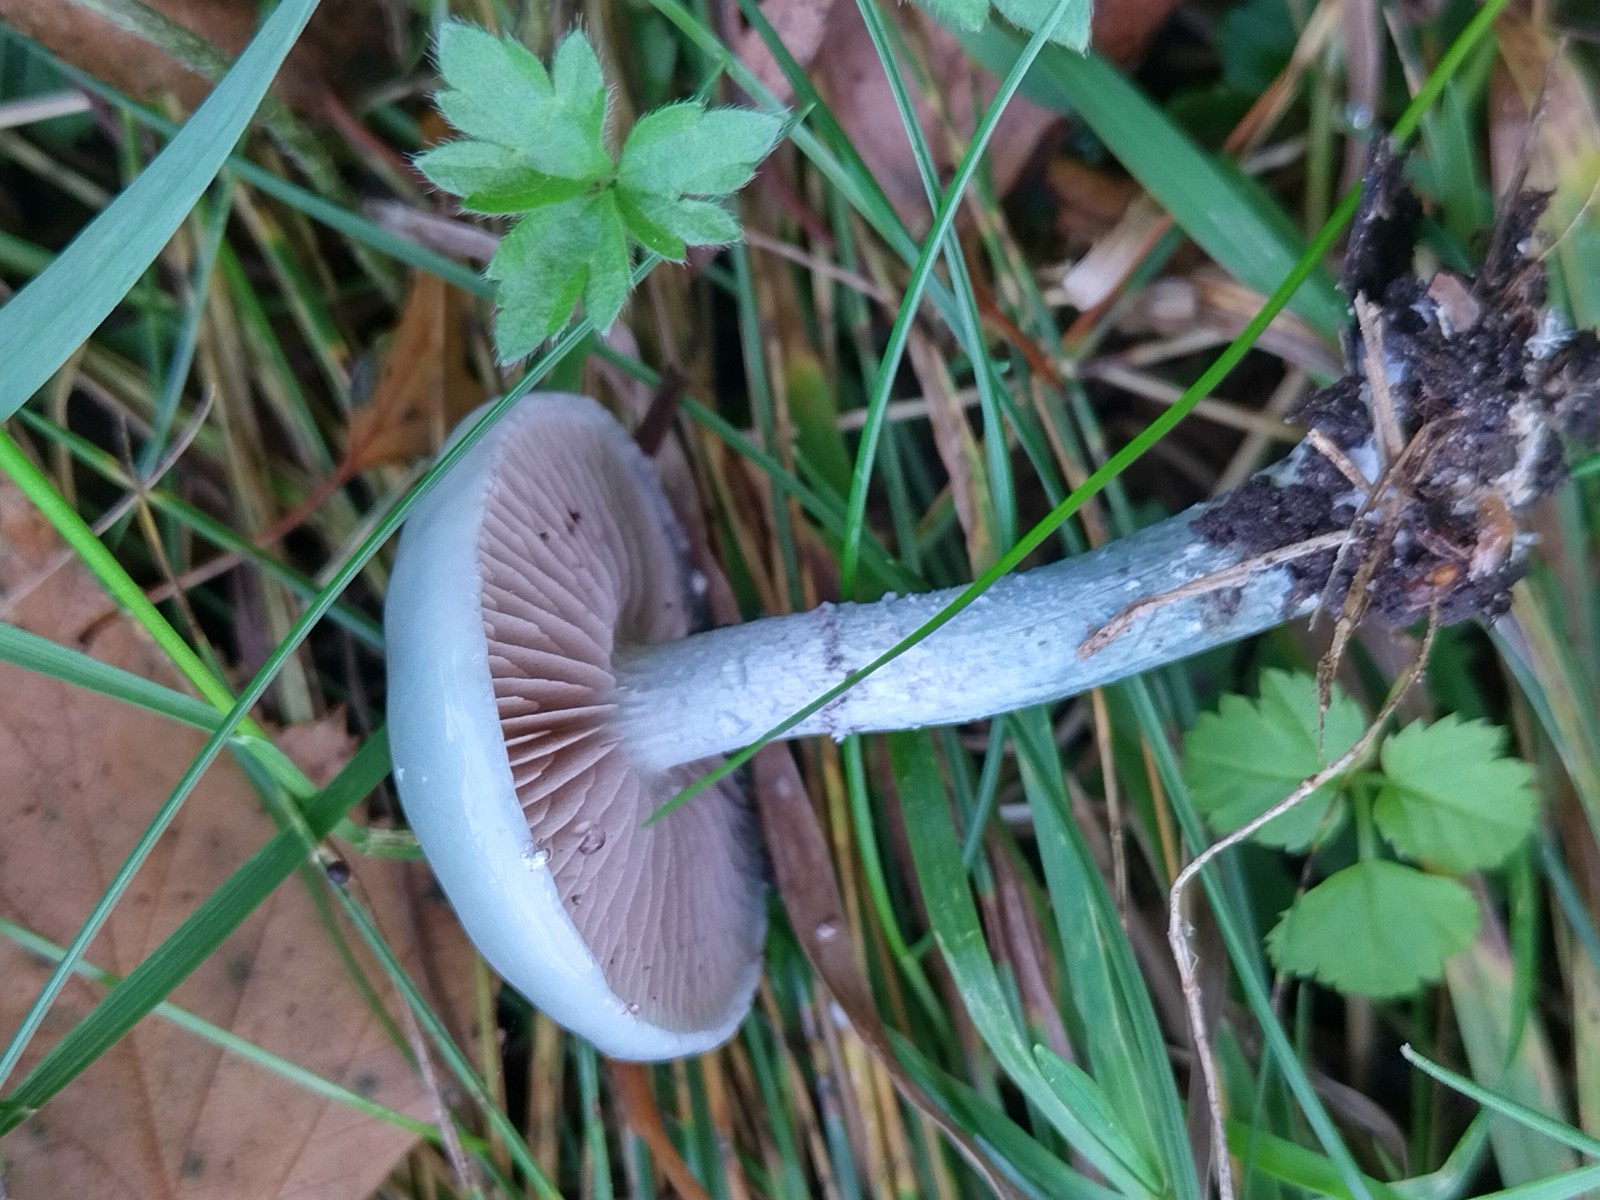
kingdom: Fungi
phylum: Basidiomycota
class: Agaricomycetes
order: Agaricales
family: Strophariaceae
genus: Stropharia
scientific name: Stropharia cyanea
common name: blågrøn bredblad
